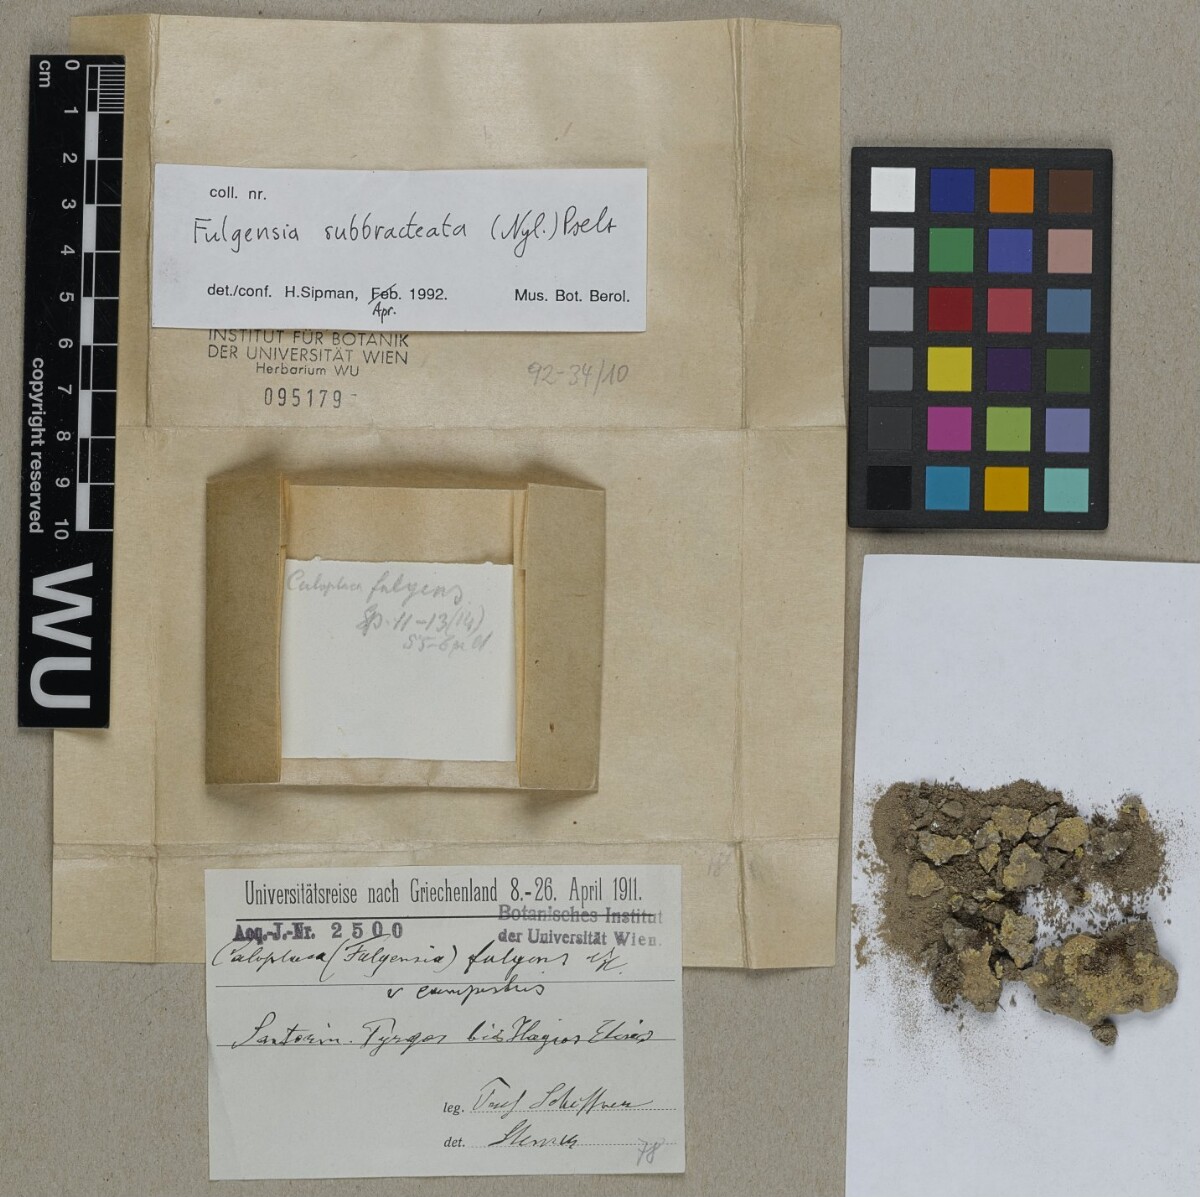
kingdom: Fungi
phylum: Ascomycota
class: Lecanoromycetes
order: Teloschistales
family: Teloschistaceae
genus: Gyalolechia
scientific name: Gyalolechia subbracteata
